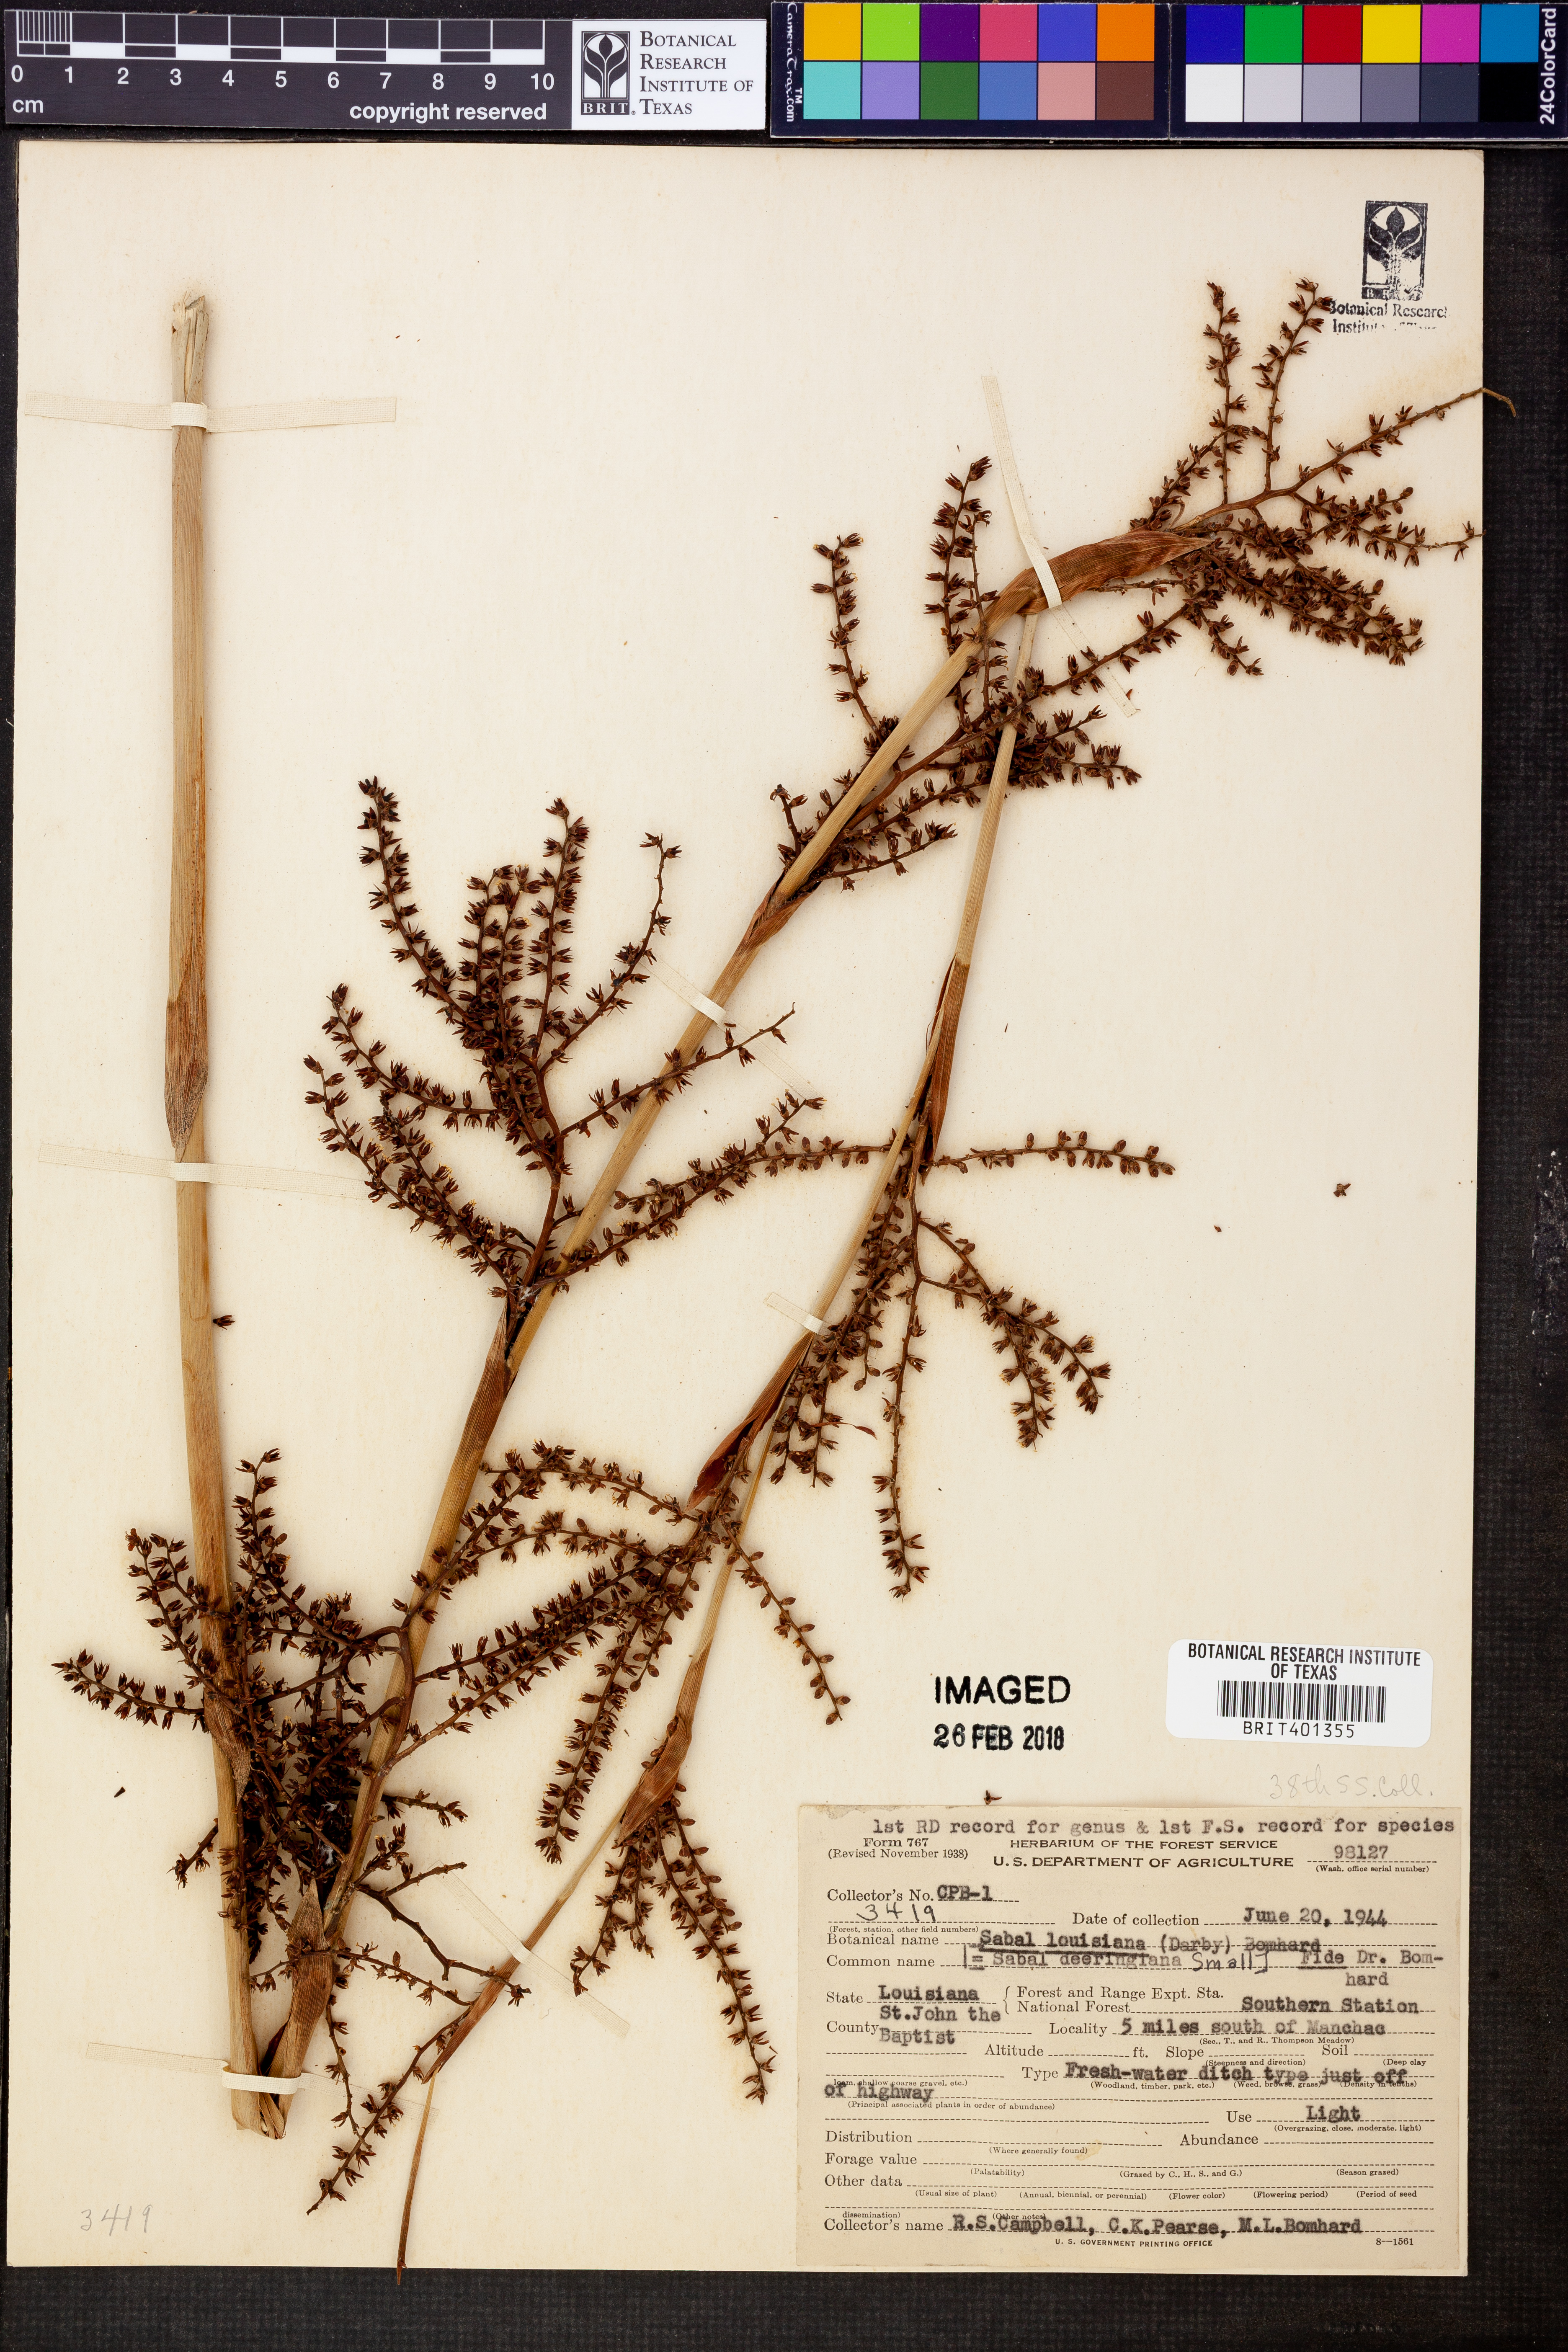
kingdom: Plantae
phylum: Tracheophyta
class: Liliopsida
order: Arecales
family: Arecaceae
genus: Sabal
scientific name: Sabal minor
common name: Dwarf palmetto
